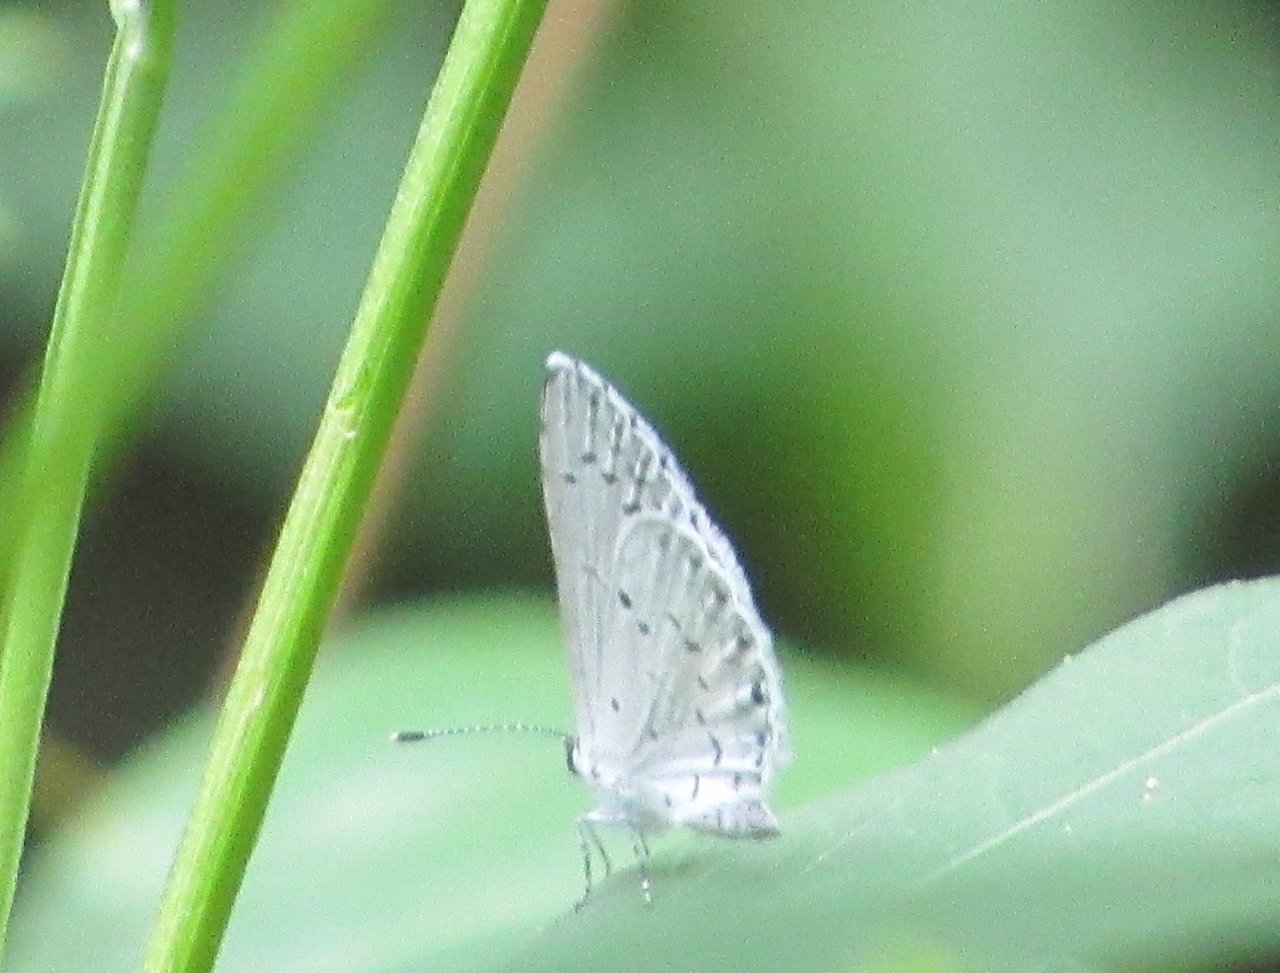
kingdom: Animalia
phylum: Arthropoda
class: Insecta
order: Lepidoptera
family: Lycaenidae
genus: Cyaniris
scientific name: Cyaniris neglecta
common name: Summer Azure
